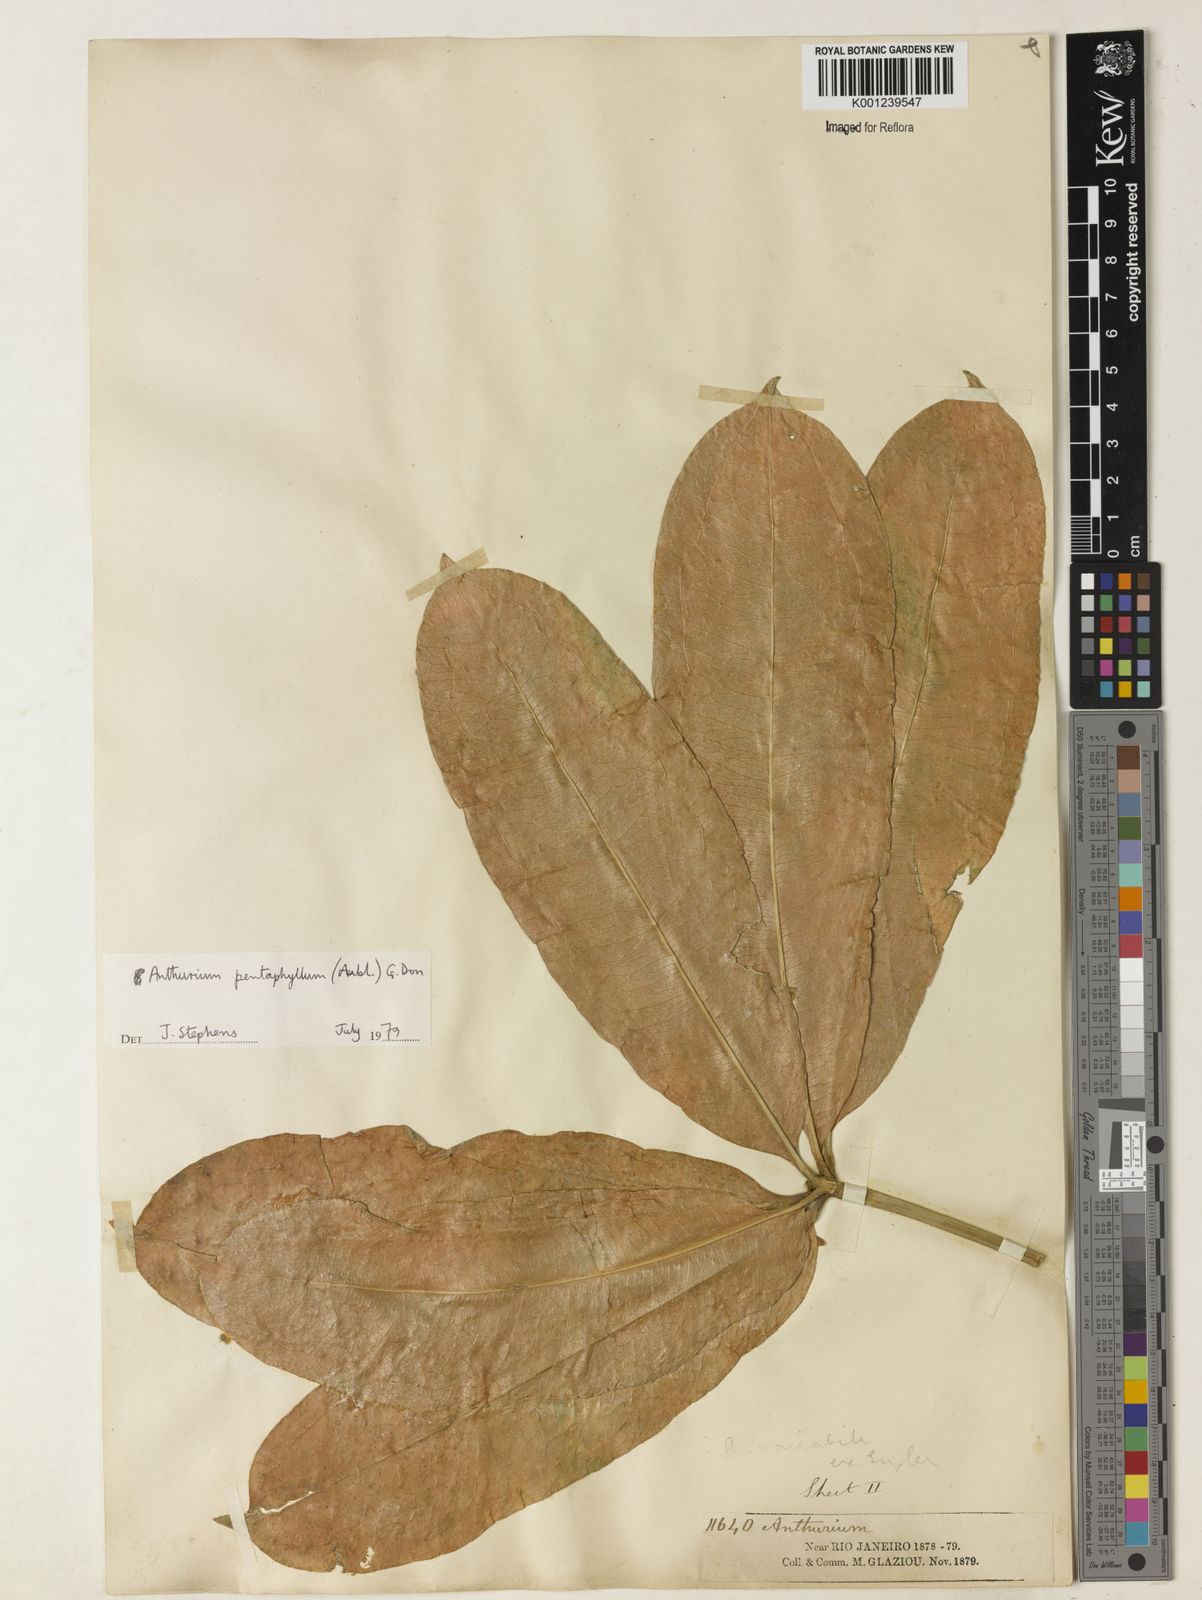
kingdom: Plantae
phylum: Tracheophyta
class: Liliopsida
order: Alismatales
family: Araceae
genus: Anthurium
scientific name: Anthurium pentaphyllum
